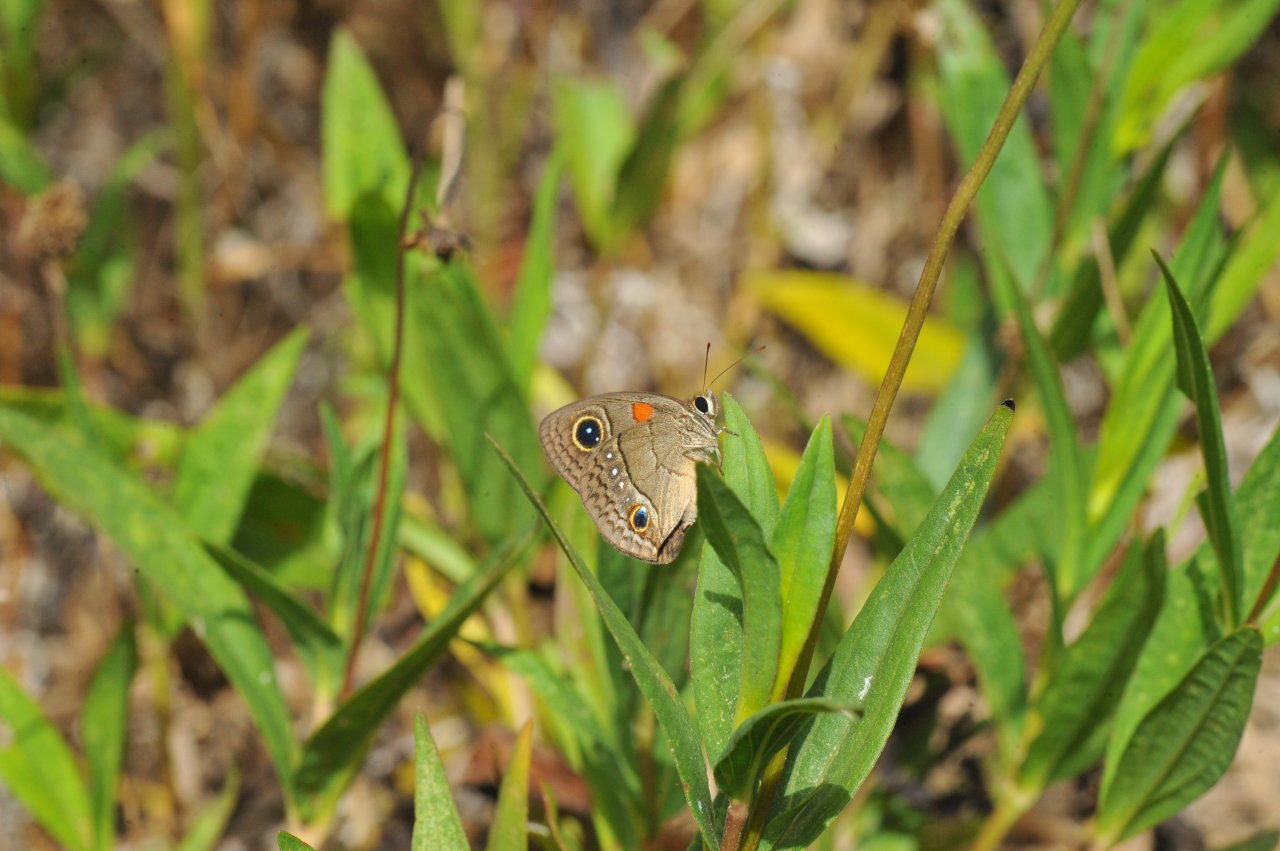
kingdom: Animalia
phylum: Arthropoda
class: Insecta
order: Lepidoptera
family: Nymphalidae
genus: Calisto
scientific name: Calisto herophile
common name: Cuban Calisto
